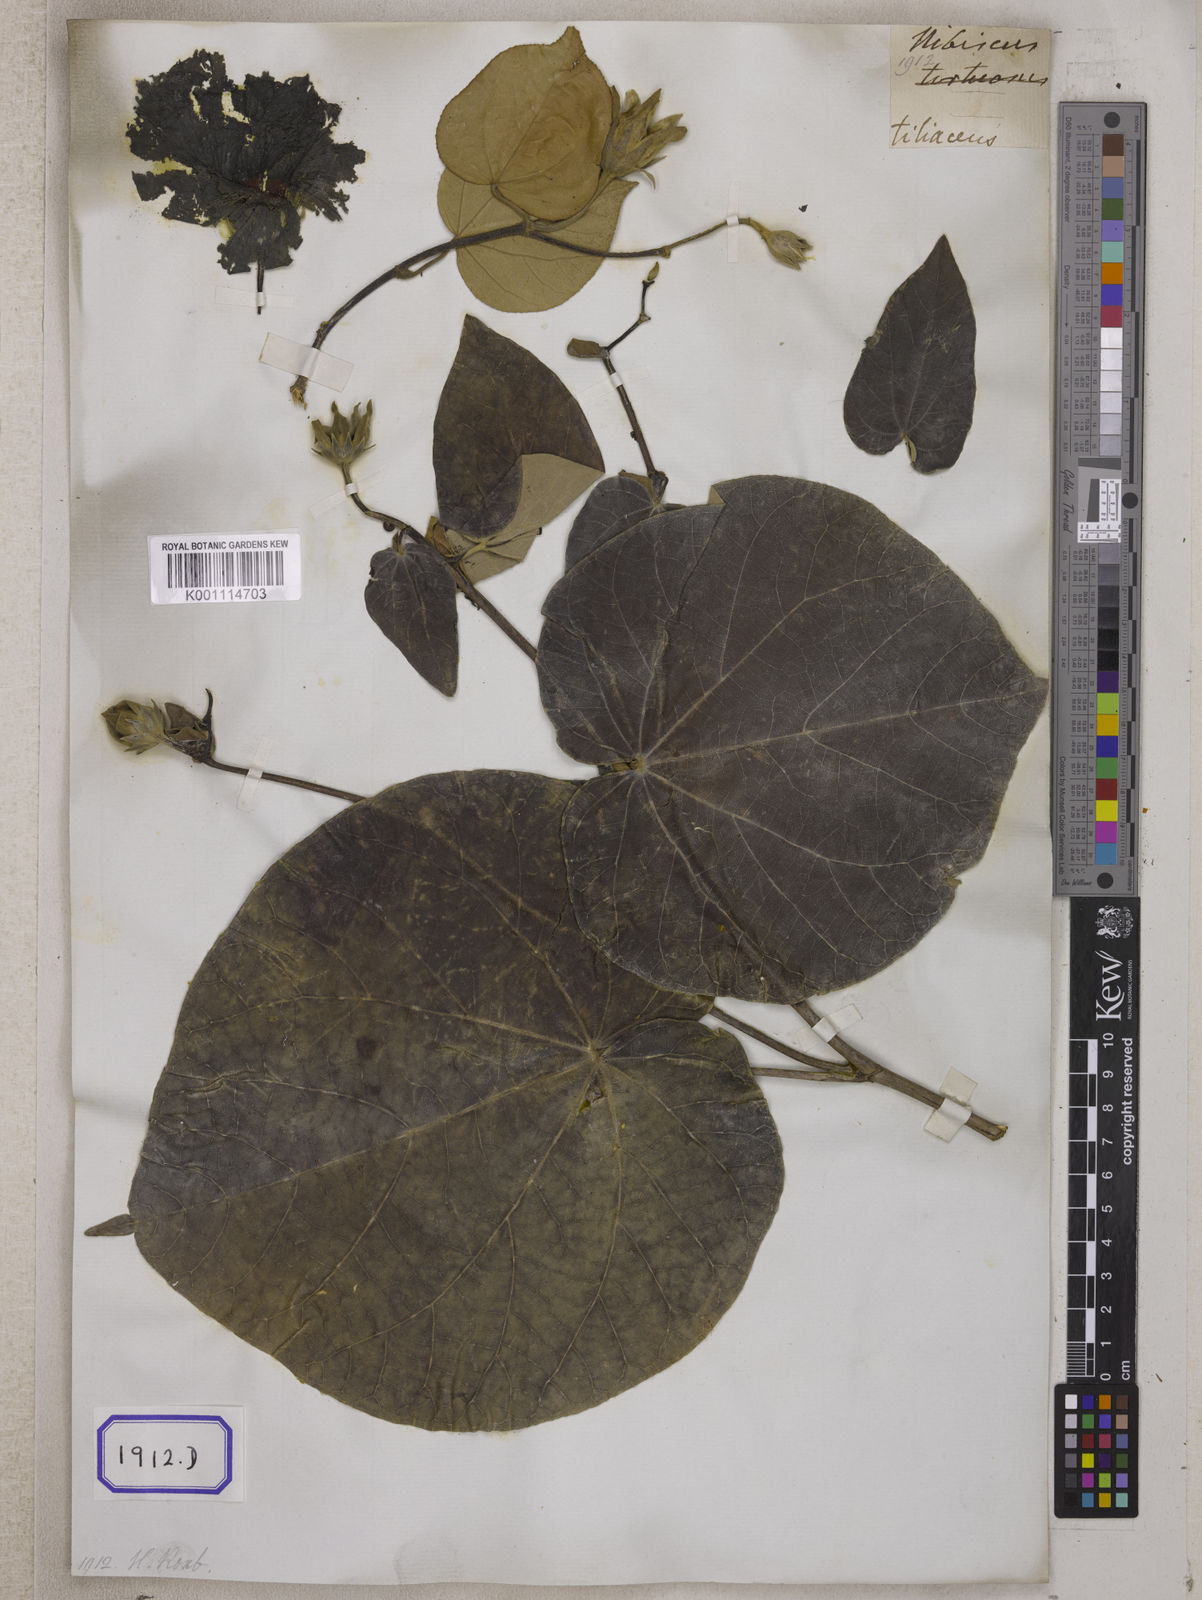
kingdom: Plantae
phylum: Tracheophyta
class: Magnoliopsida
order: Malvales
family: Malvaceae
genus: Talipariti
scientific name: Talipariti tiliaceum
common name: Sea hibiscus
